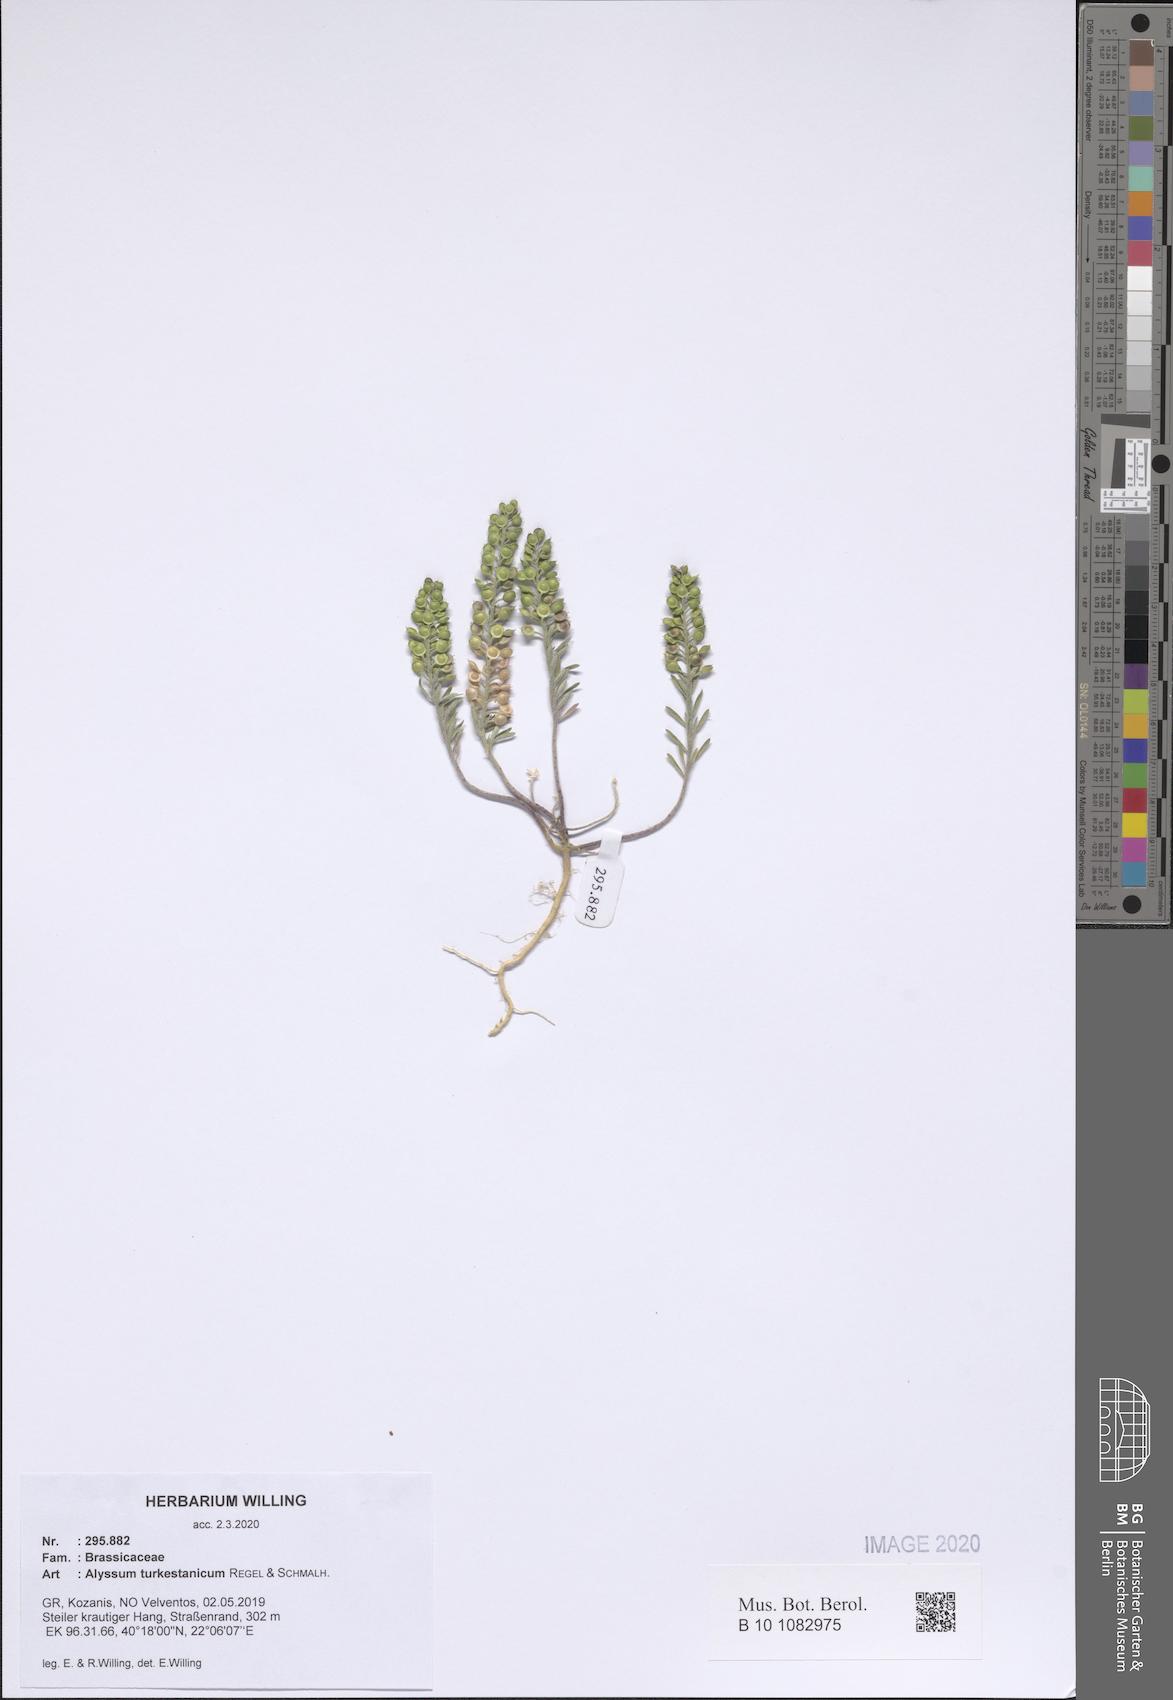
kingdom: Plantae
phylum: Tracheophyta
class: Magnoliopsida
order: Brassicales
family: Brassicaceae
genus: Alyssum
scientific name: Alyssum turkestanicum
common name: Desert alyssum
